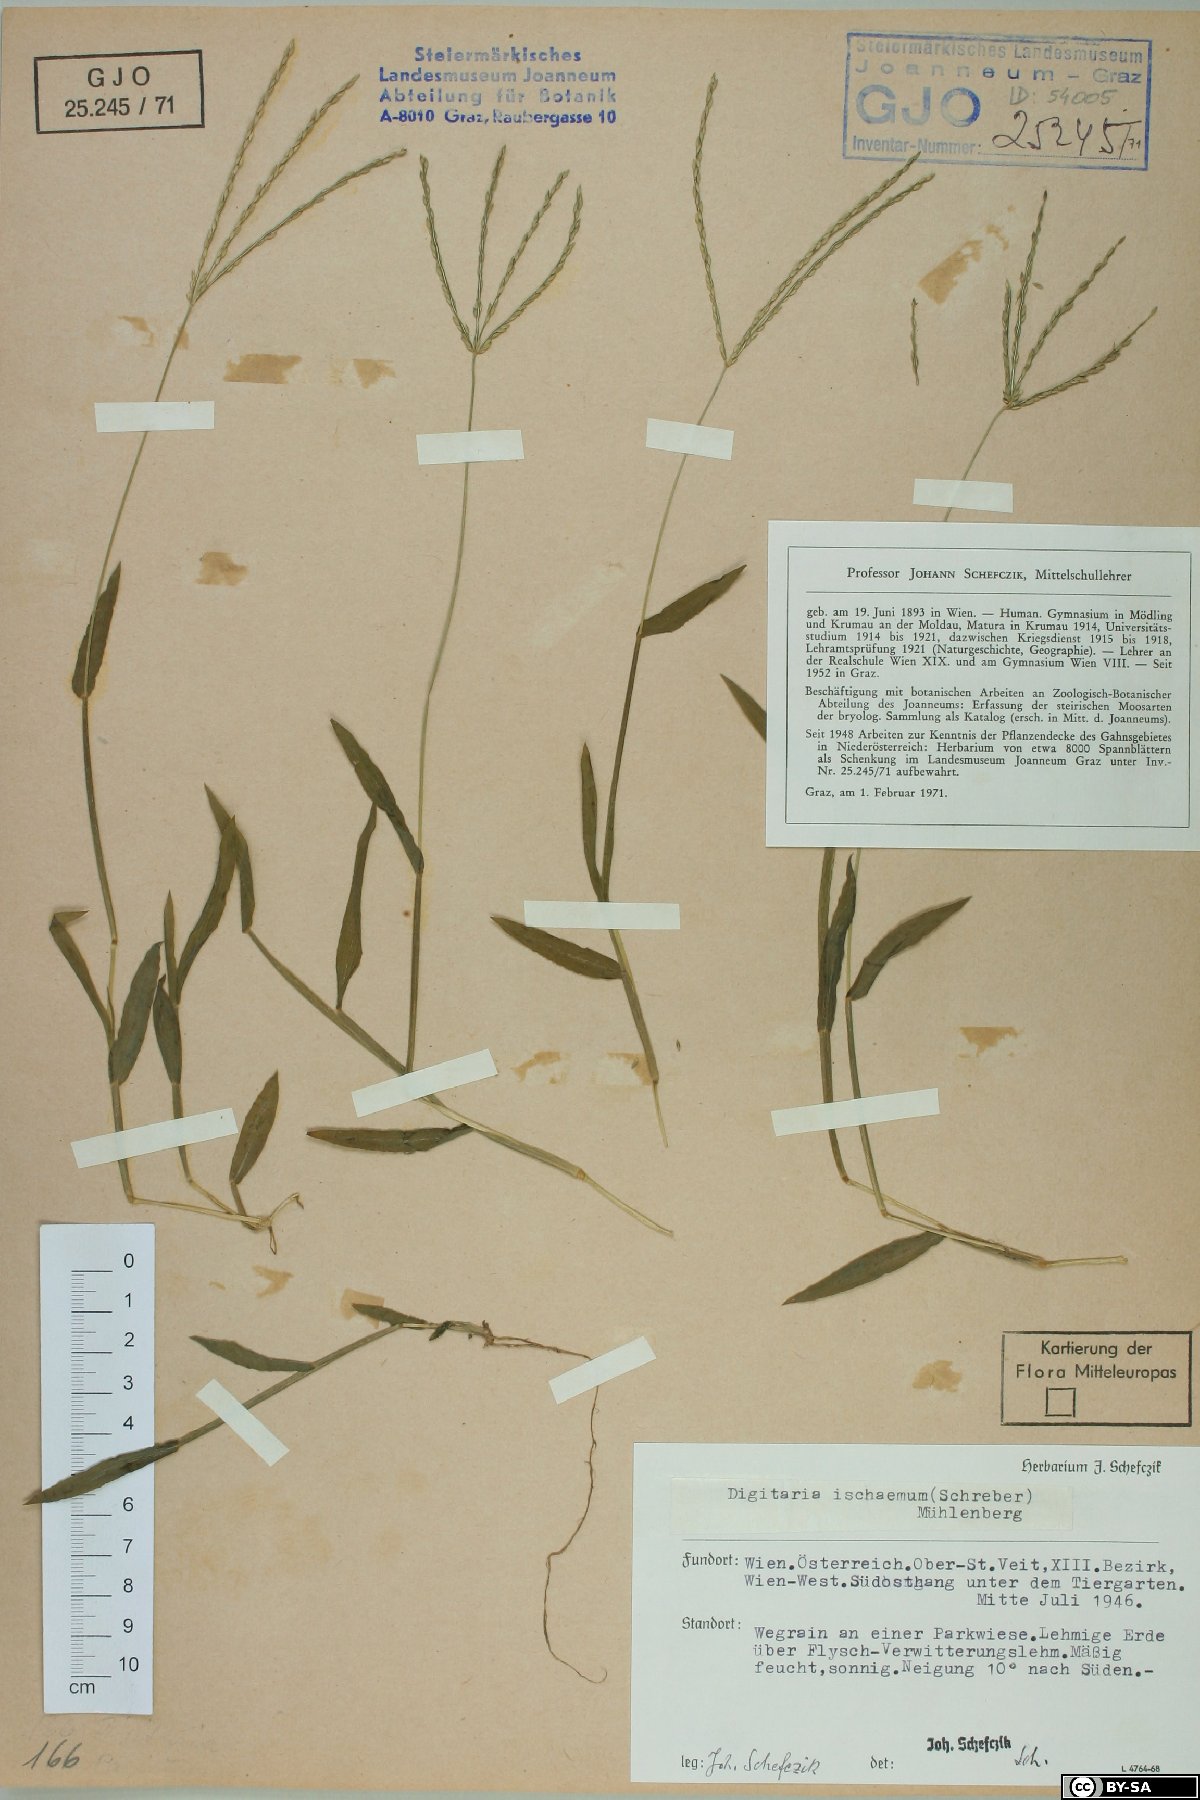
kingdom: Plantae
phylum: Tracheophyta
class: Liliopsida
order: Poales
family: Poaceae
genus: Digitaria
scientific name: Digitaria ischaemum
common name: Smooth crabgrass
